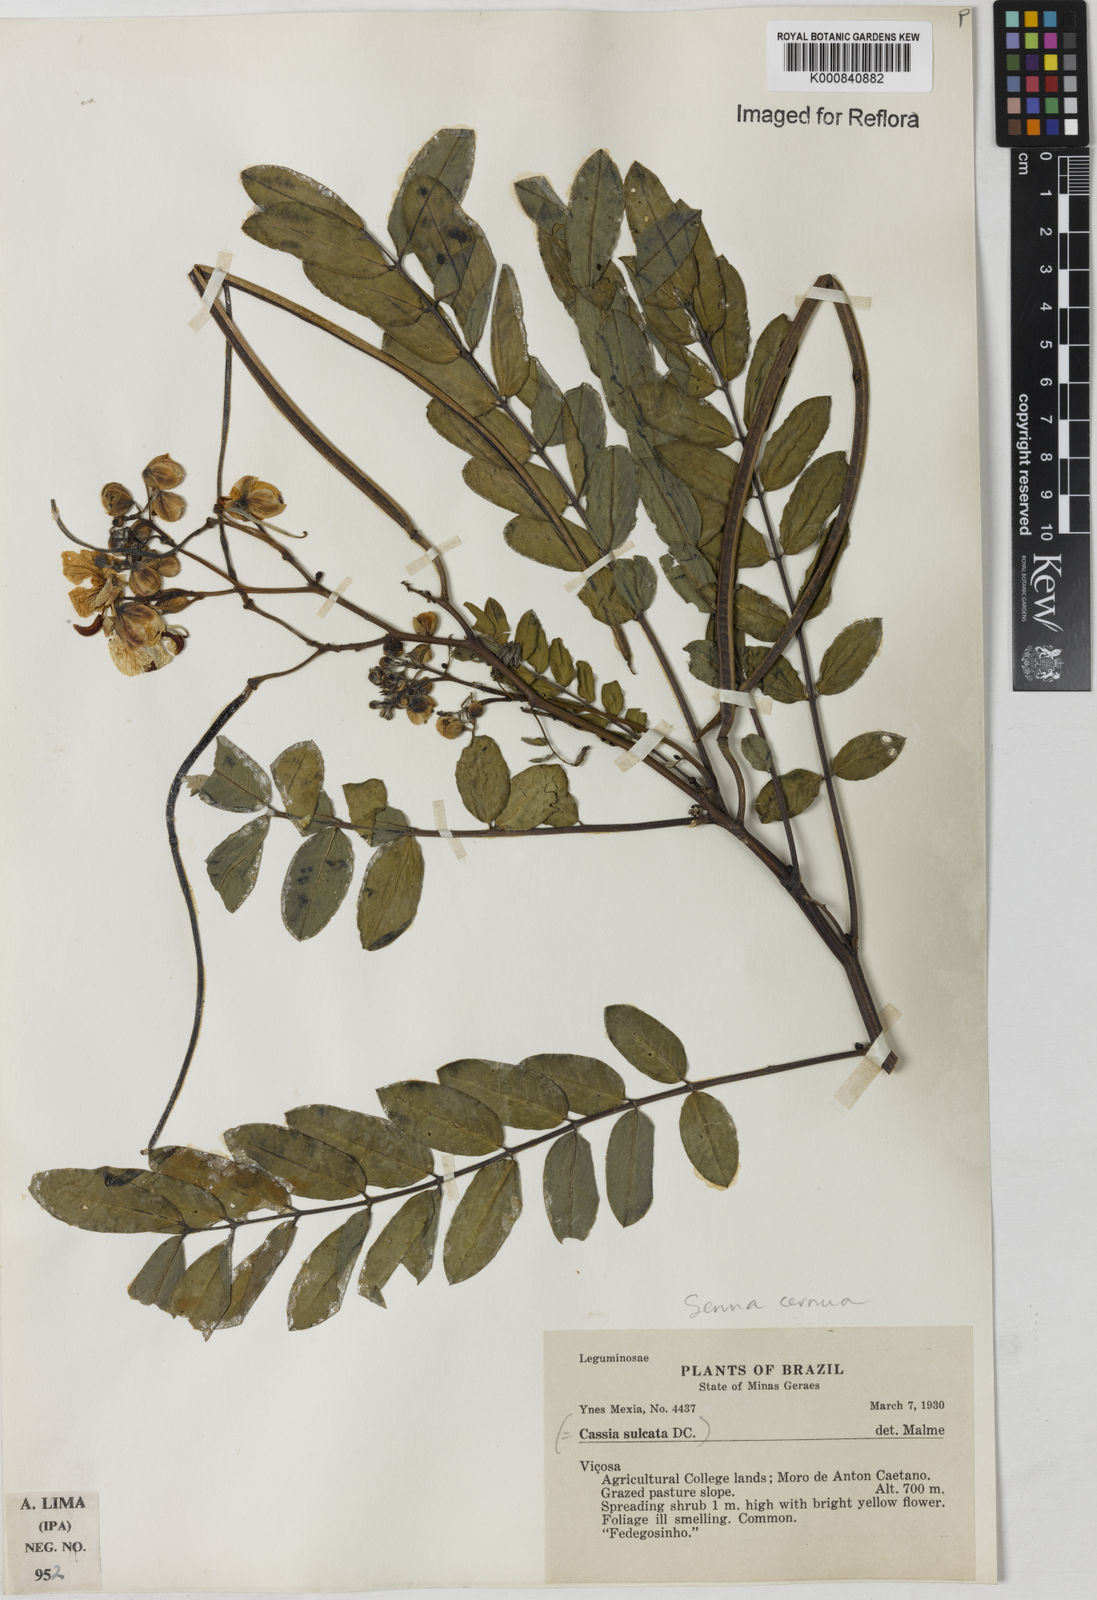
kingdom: Plantae
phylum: Tracheophyta
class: Magnoliopsida
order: Fabales
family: Fabaceae
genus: Senna
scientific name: Senna cernua
